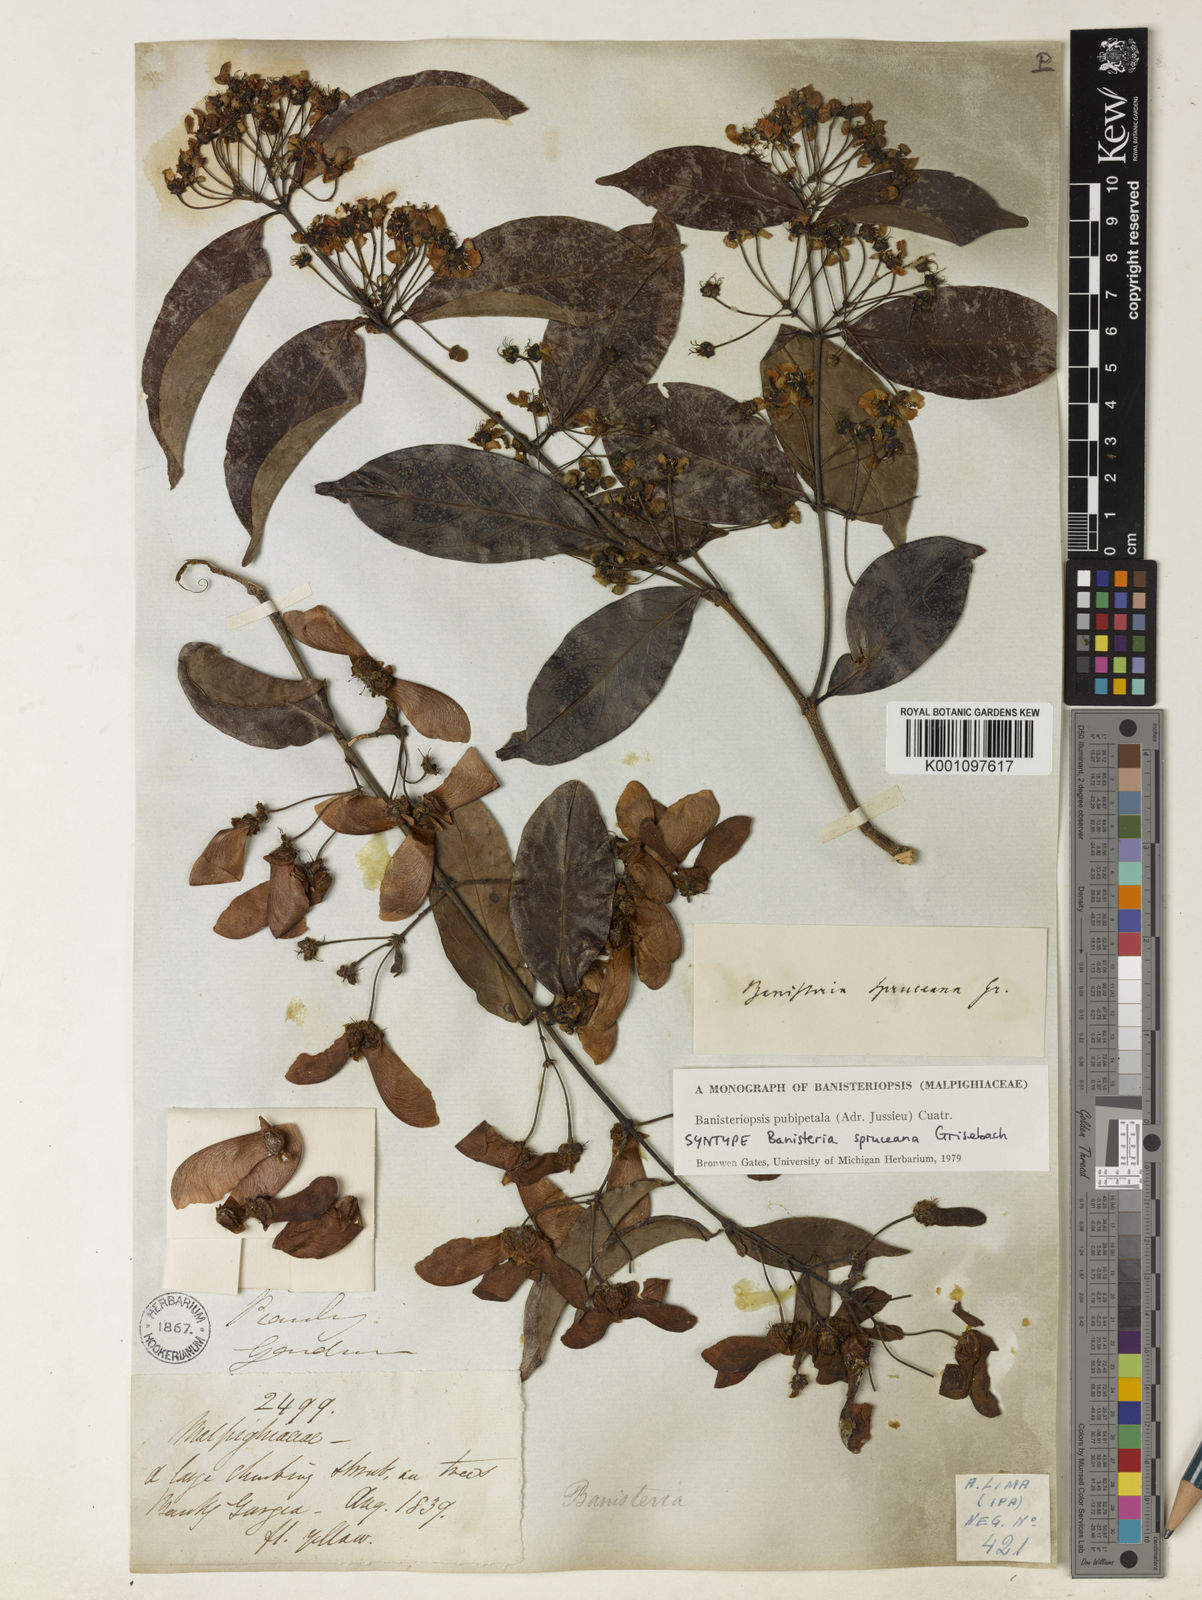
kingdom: Plantae
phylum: Tracheophyta
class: Magnoliopsida
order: Malpighiales
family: Malpighiaceae
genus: Diplopterys
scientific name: Diplopterys pubipetala
